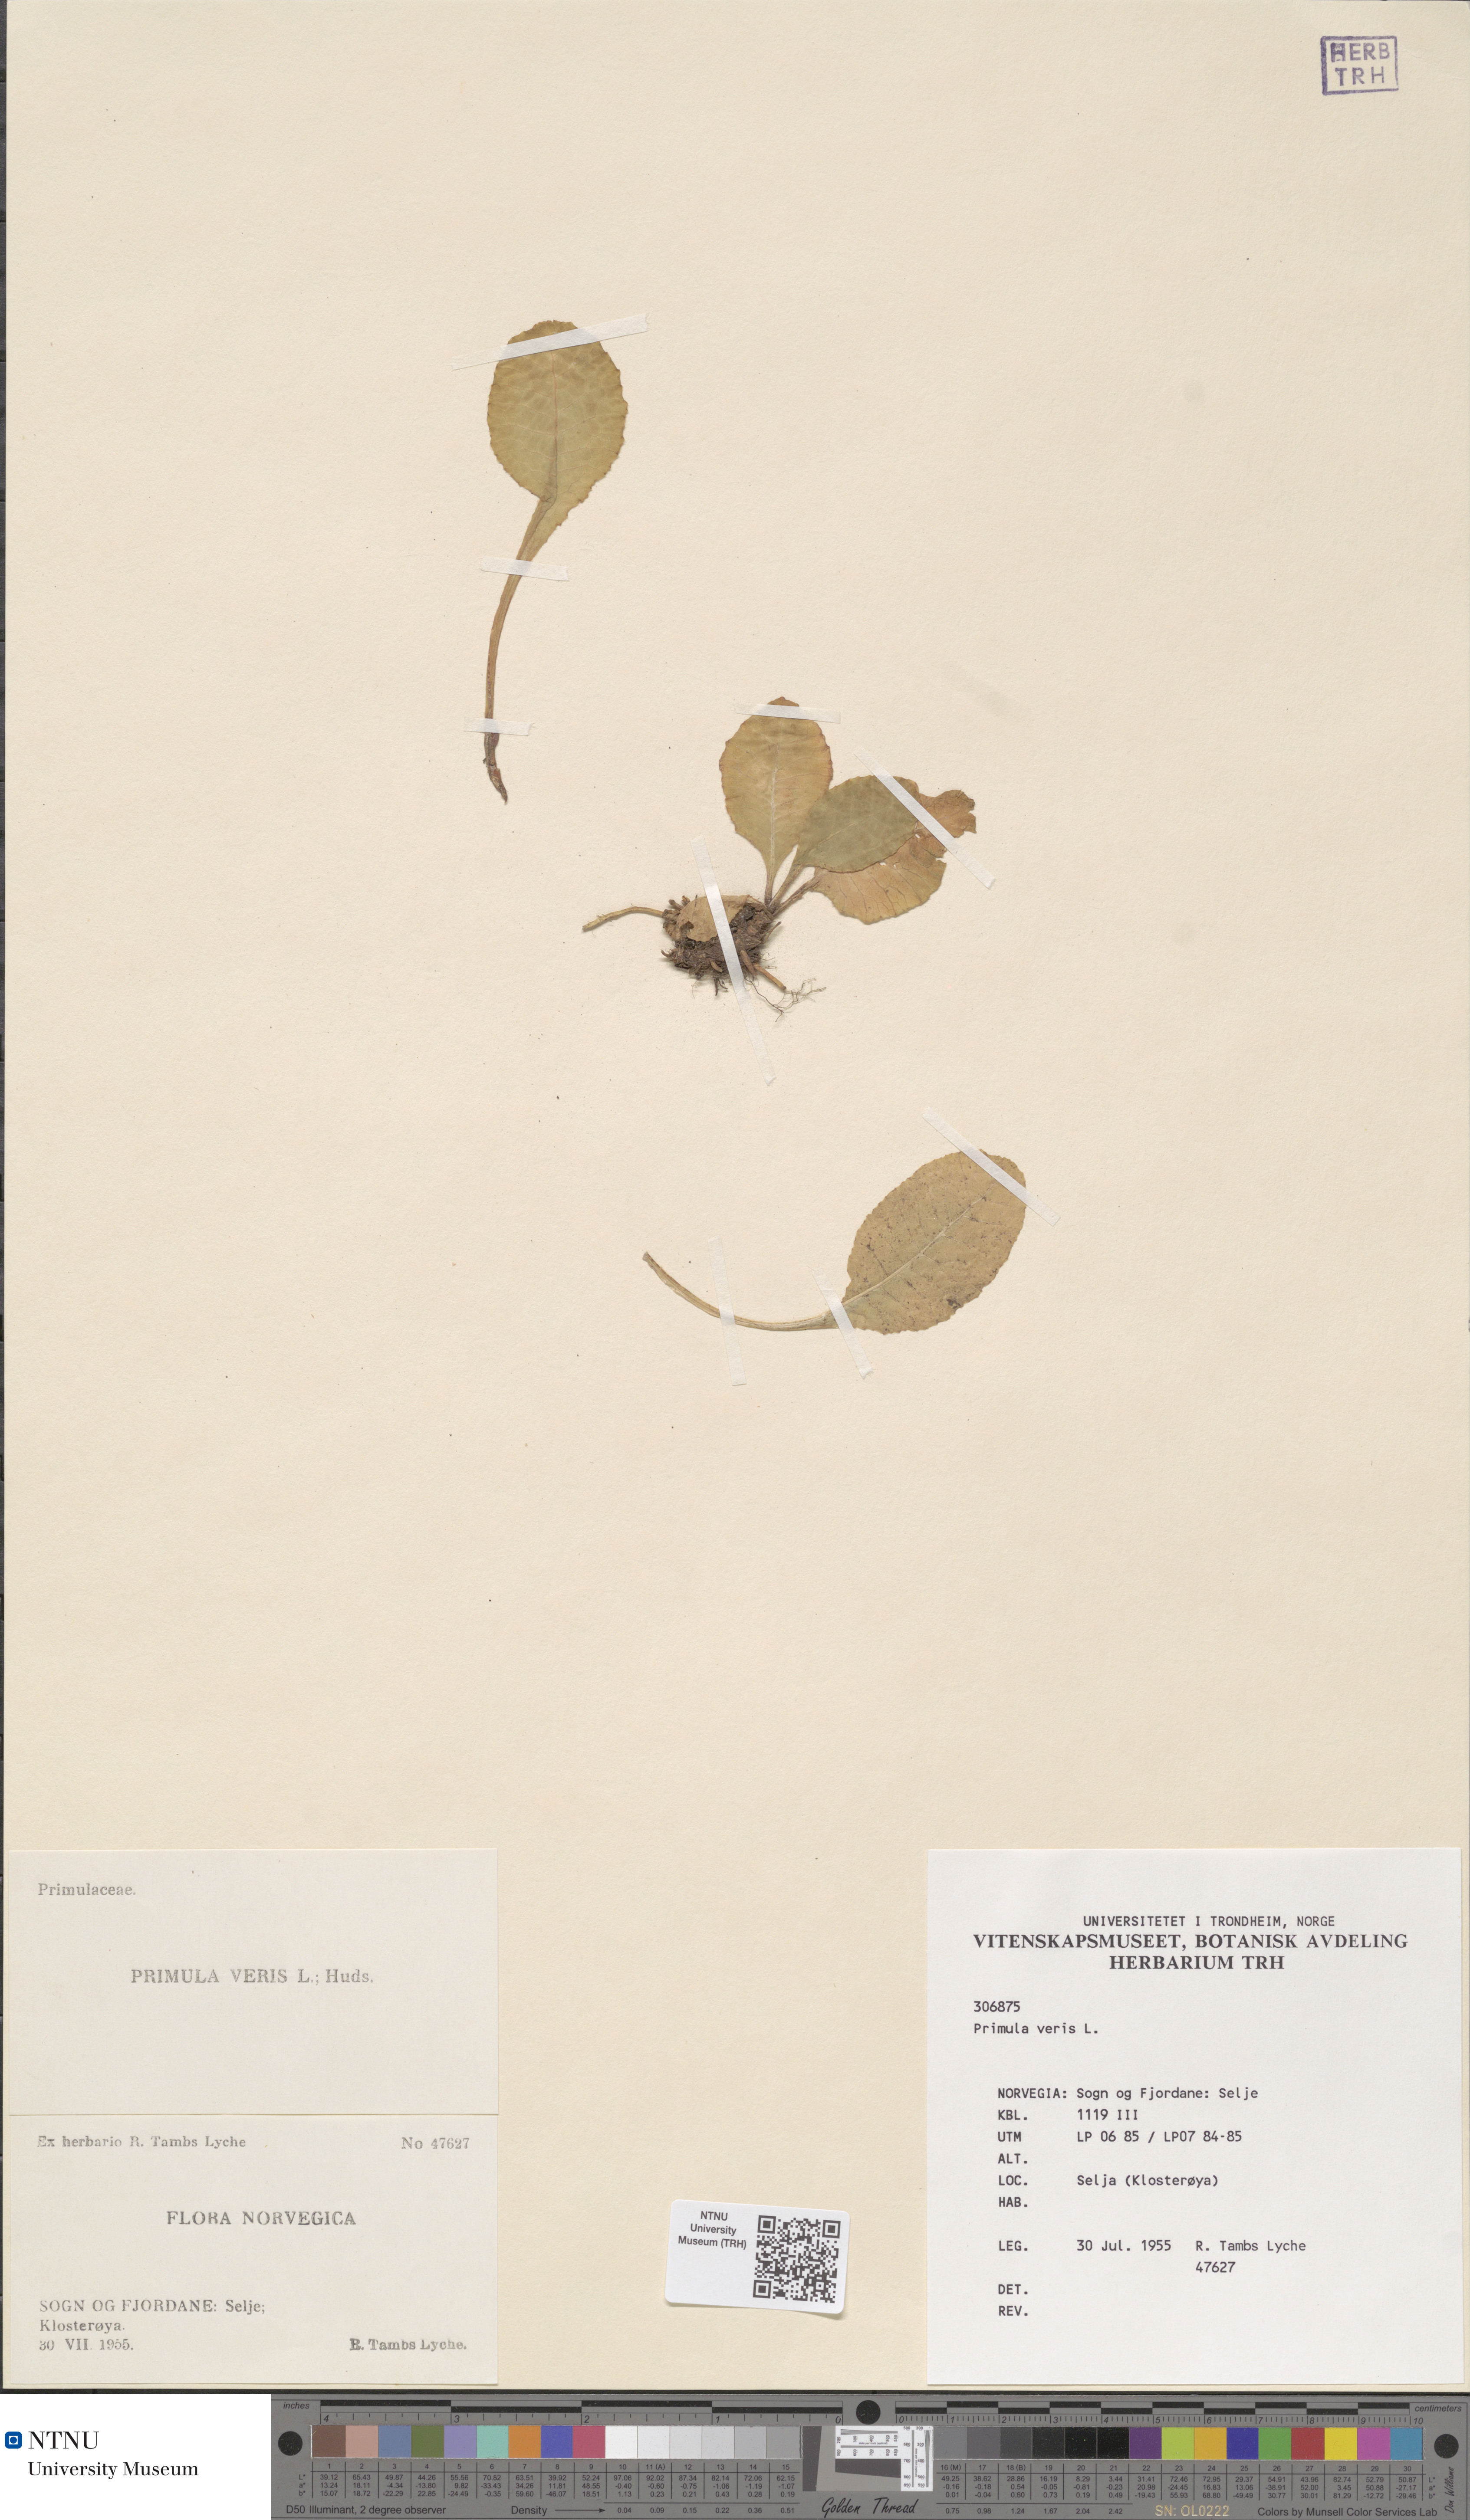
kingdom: Plantae
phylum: Tracheophyta
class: Magnoliopsida
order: Ericales
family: Primulaceae
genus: Primula
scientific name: Primula veris
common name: Cowslip
